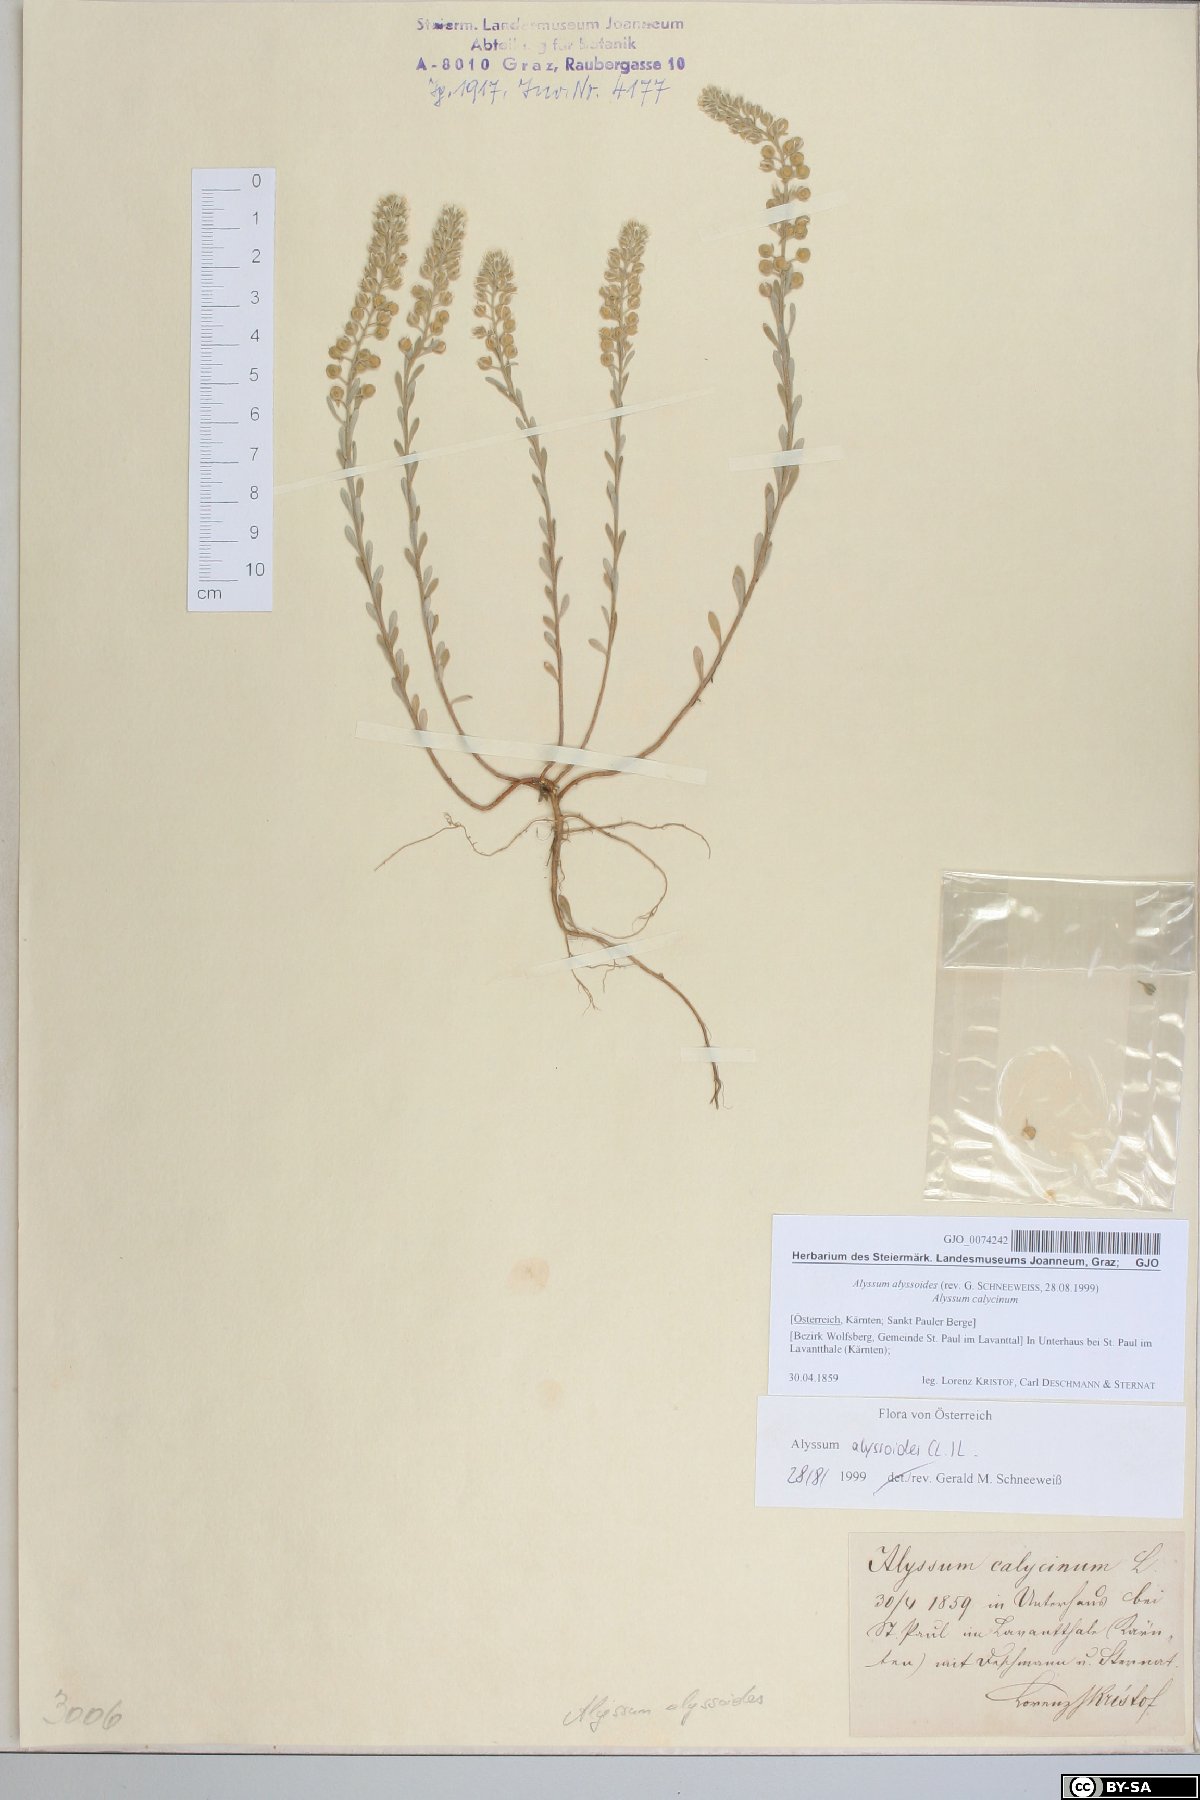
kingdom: Plantae
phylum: Tracheophyta
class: Magnoliopsida
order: Brassicales
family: Brassicaceae
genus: Alyssum
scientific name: Alyssum alyssoides
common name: Small alison
